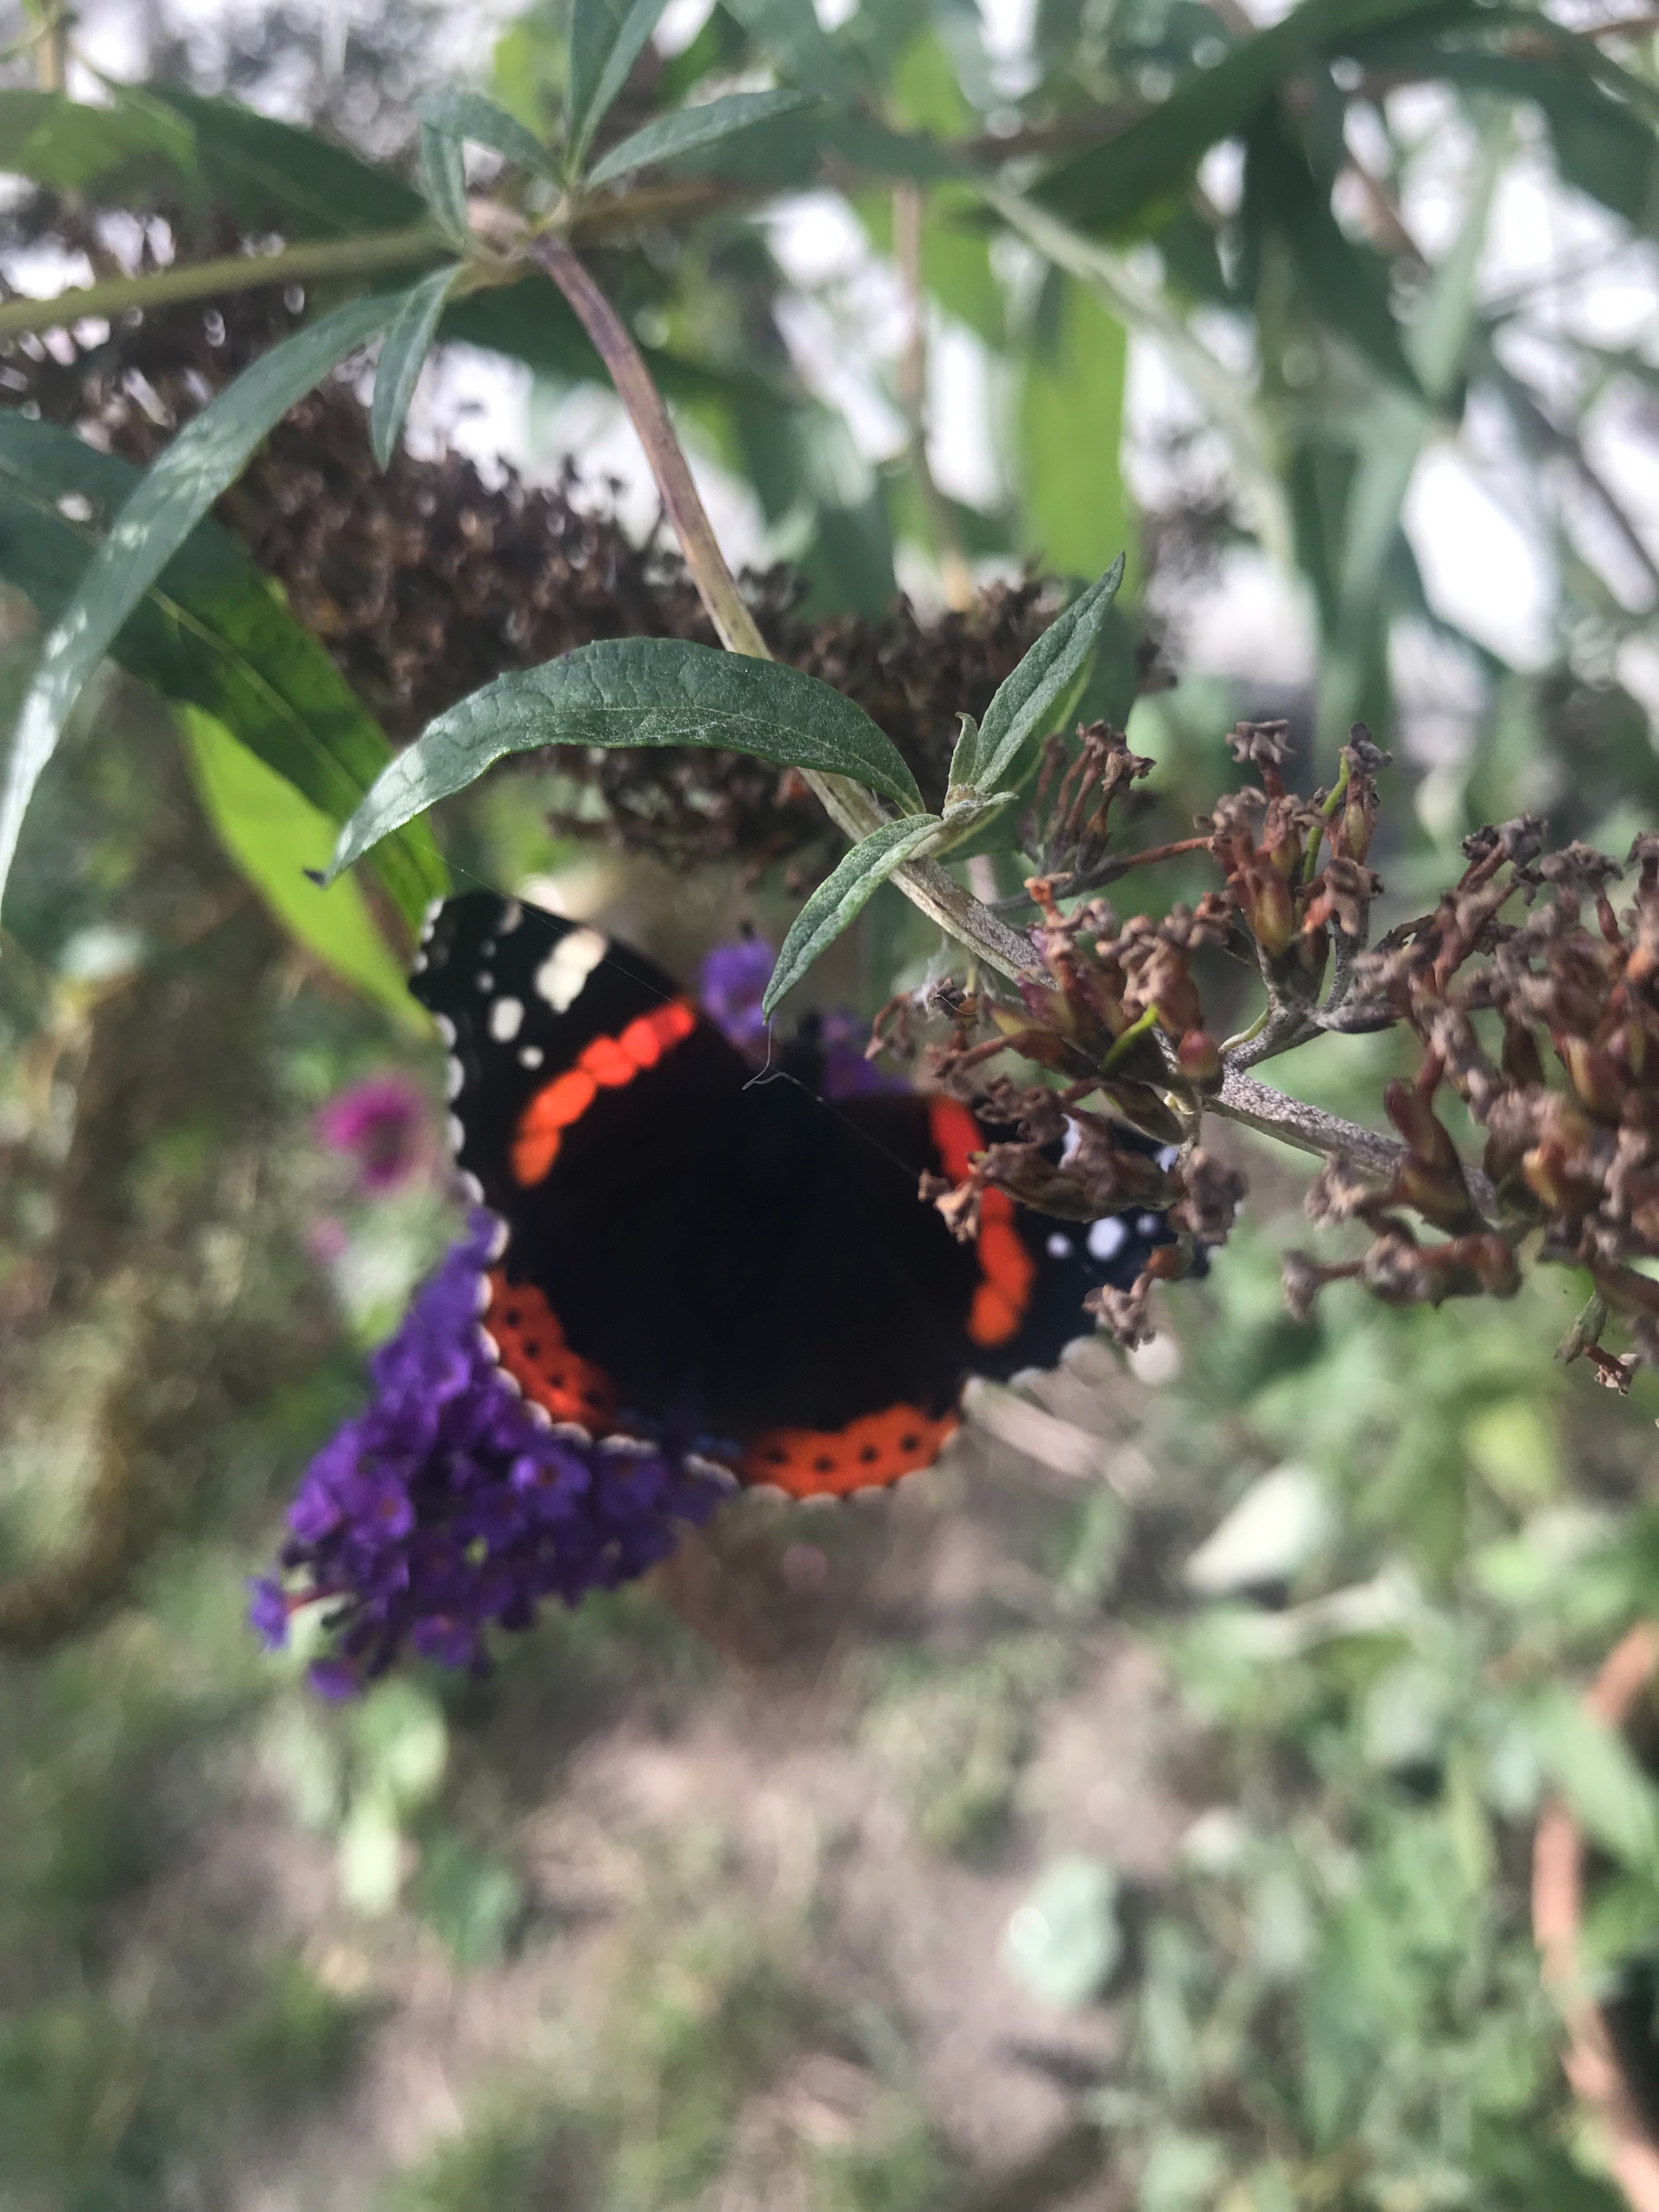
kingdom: Animalia
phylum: Arthropoda
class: Insecta
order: Lepidoptera
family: Nymphalidae
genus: Vanessa
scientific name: Vanessa atalanta
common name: Admiral
